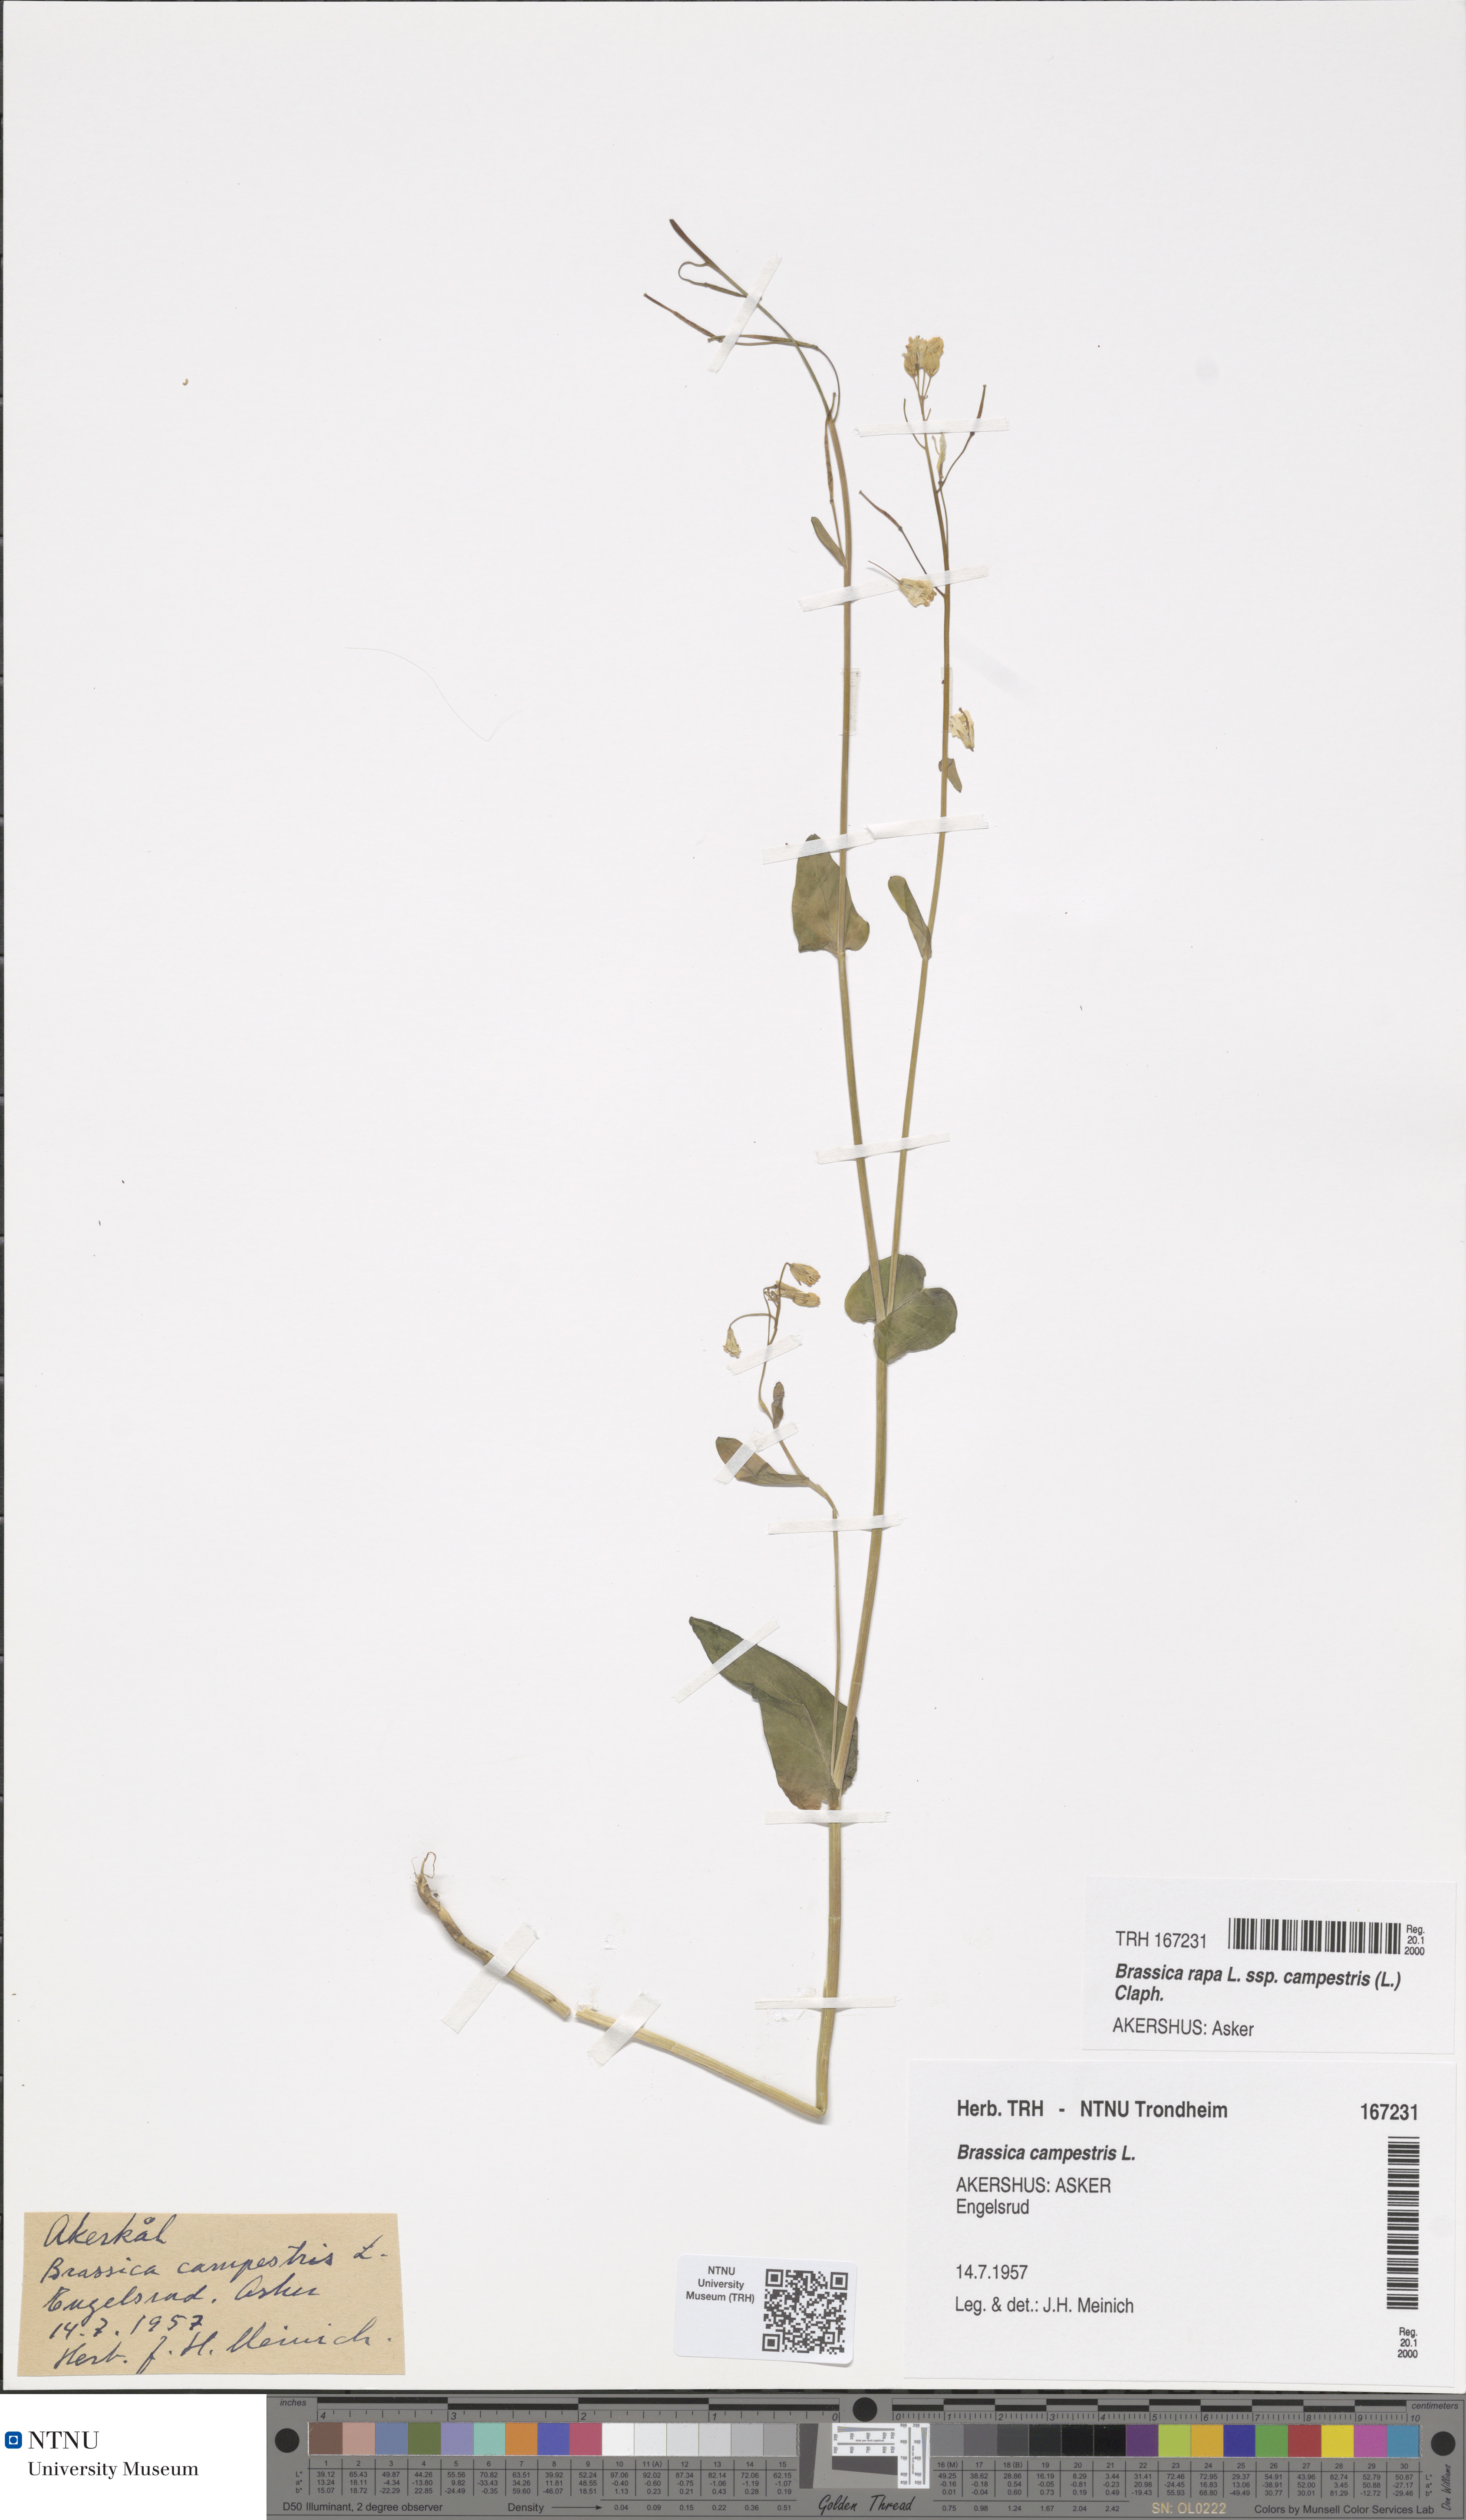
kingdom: Plantae
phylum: Tracheophyta
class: Magnoliopsida
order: Brassicales
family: Brassicaceae
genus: Brassica
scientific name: Brassica rapa
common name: Field mustard
